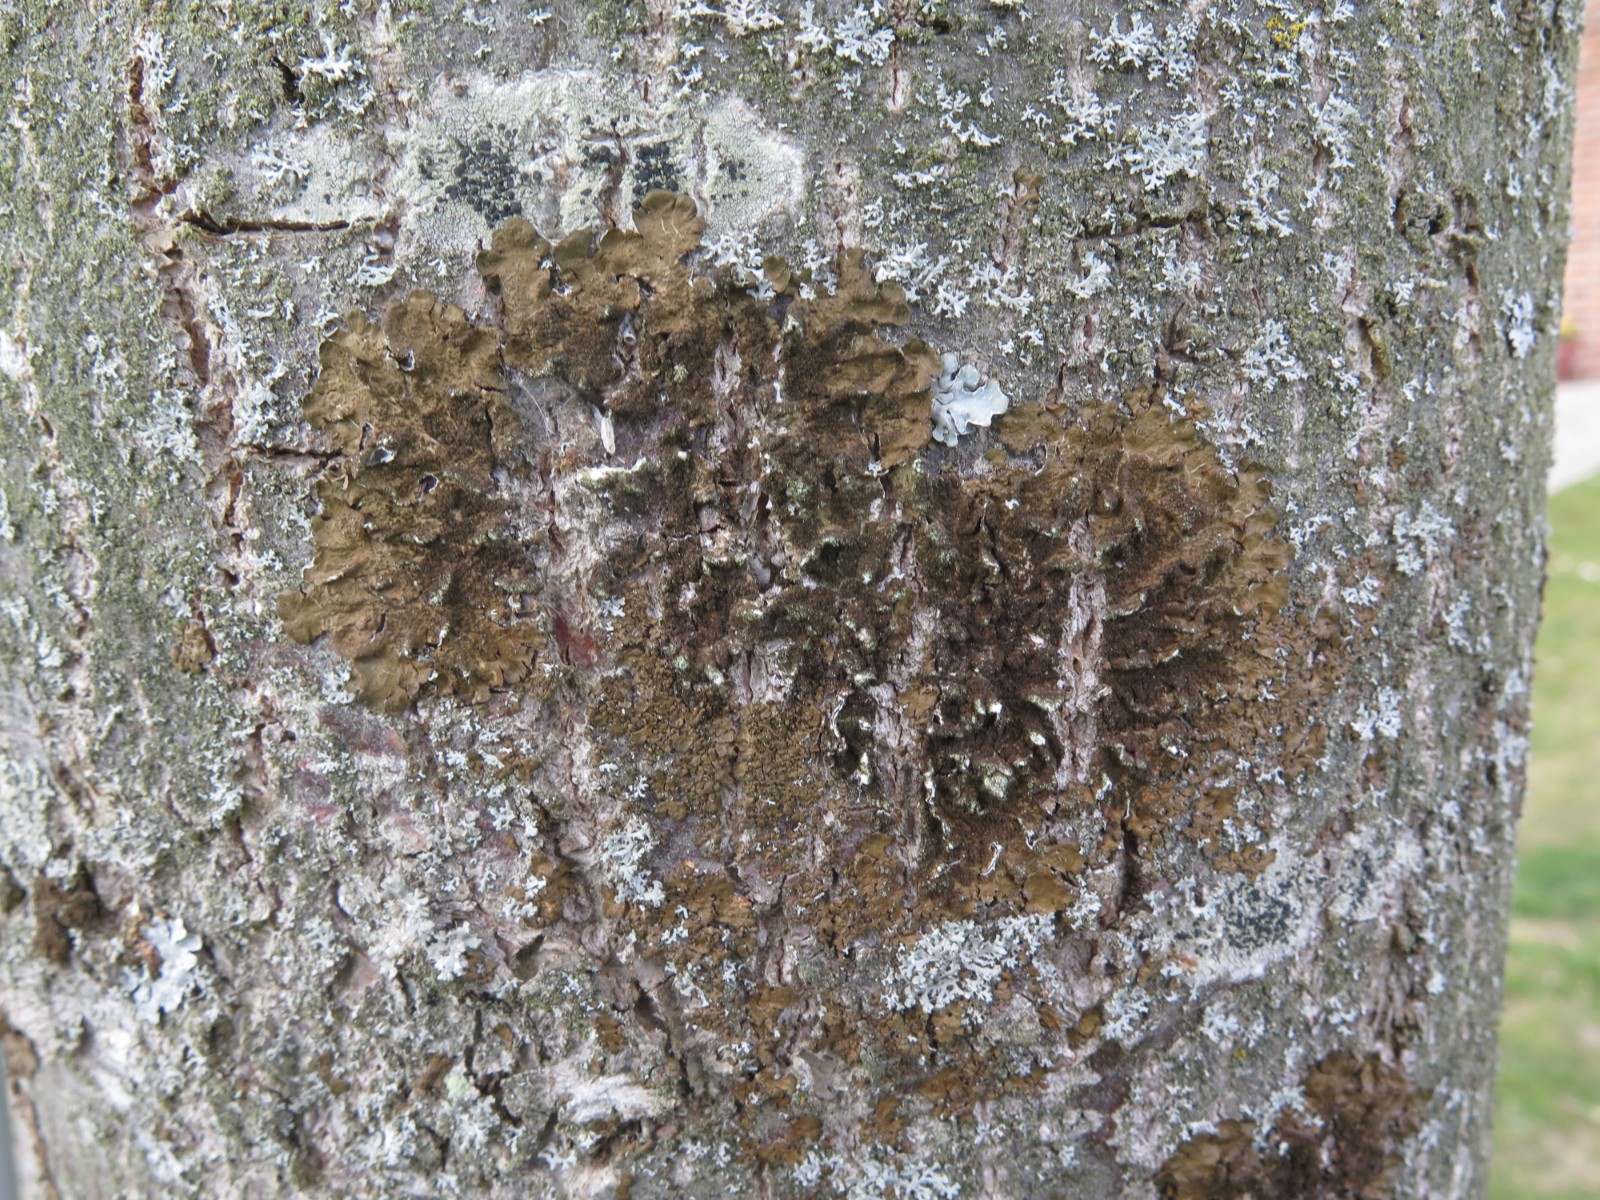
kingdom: Fungi
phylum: Ascomycota
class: Lecanoromycetes
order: Lecanorales
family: Parmeliaceae
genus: Melanelixia
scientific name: Melanelixia subaurifera
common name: guldpudret skållav
